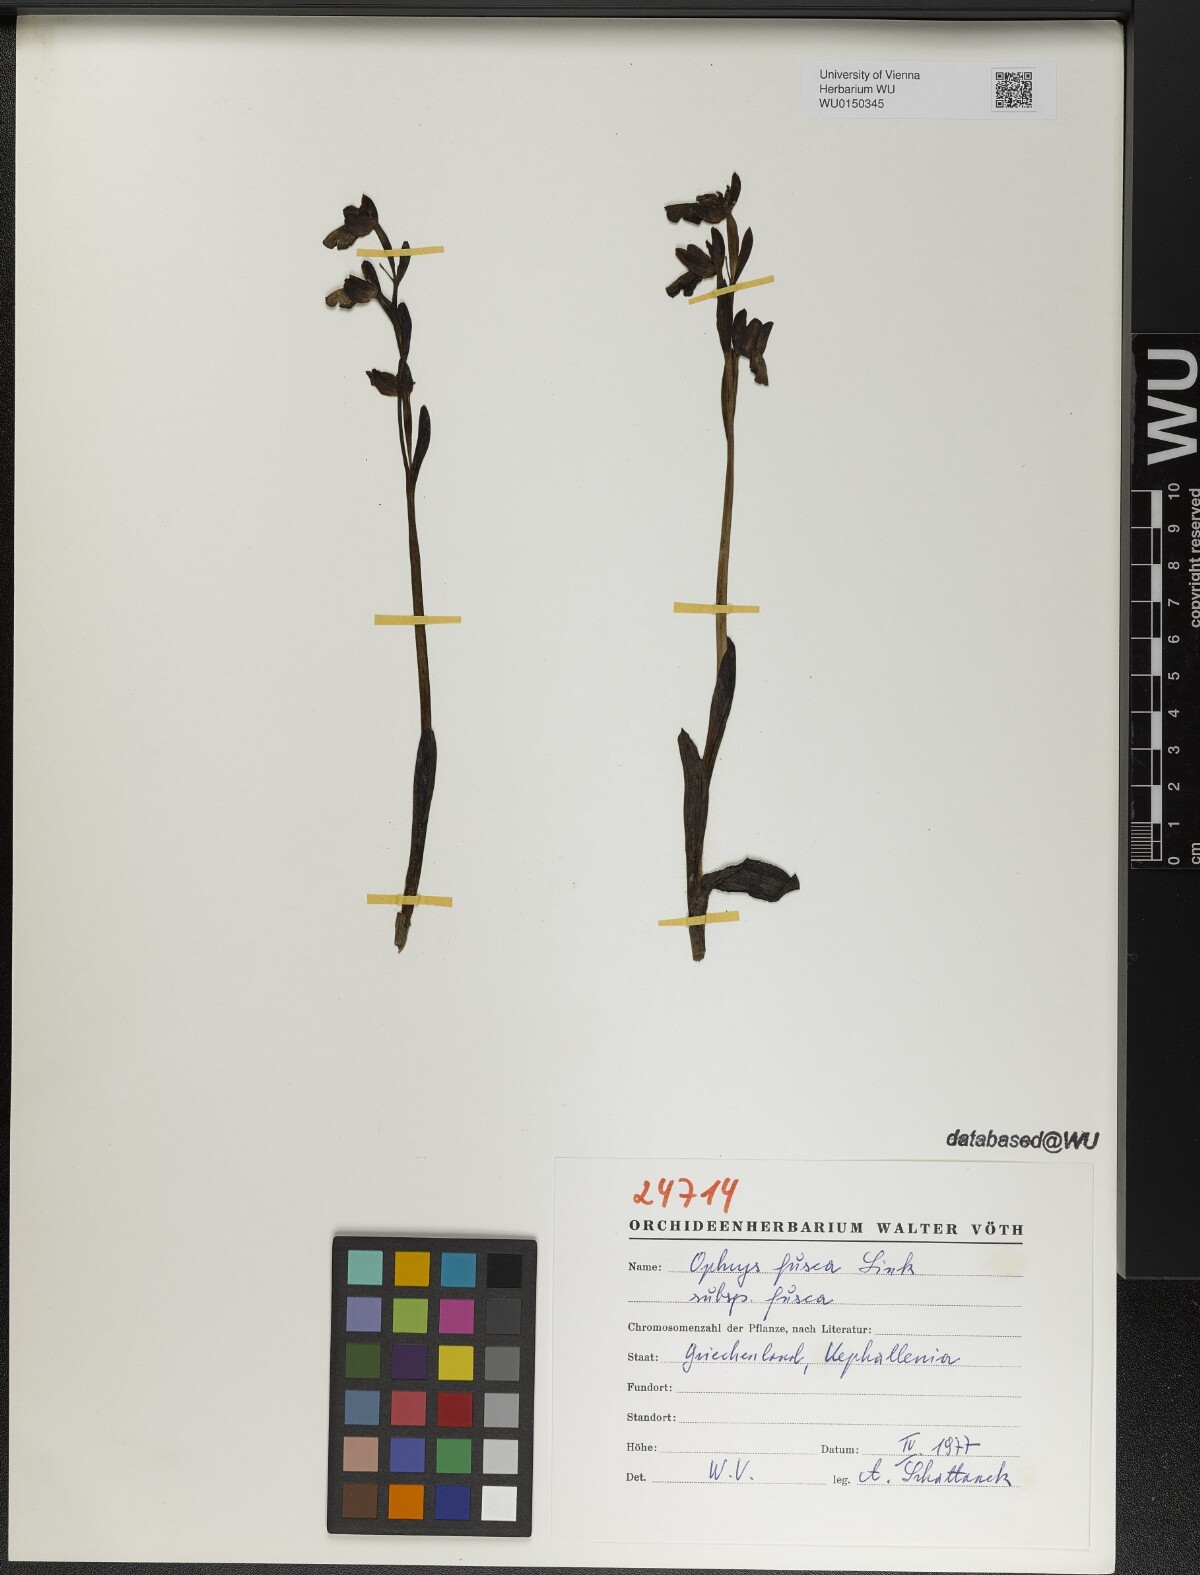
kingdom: Plantae
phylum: Tracheophyta
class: Liliopsida
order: Asparagales
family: Orchidaceae
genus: Ophrys
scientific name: Ophrys fusca
